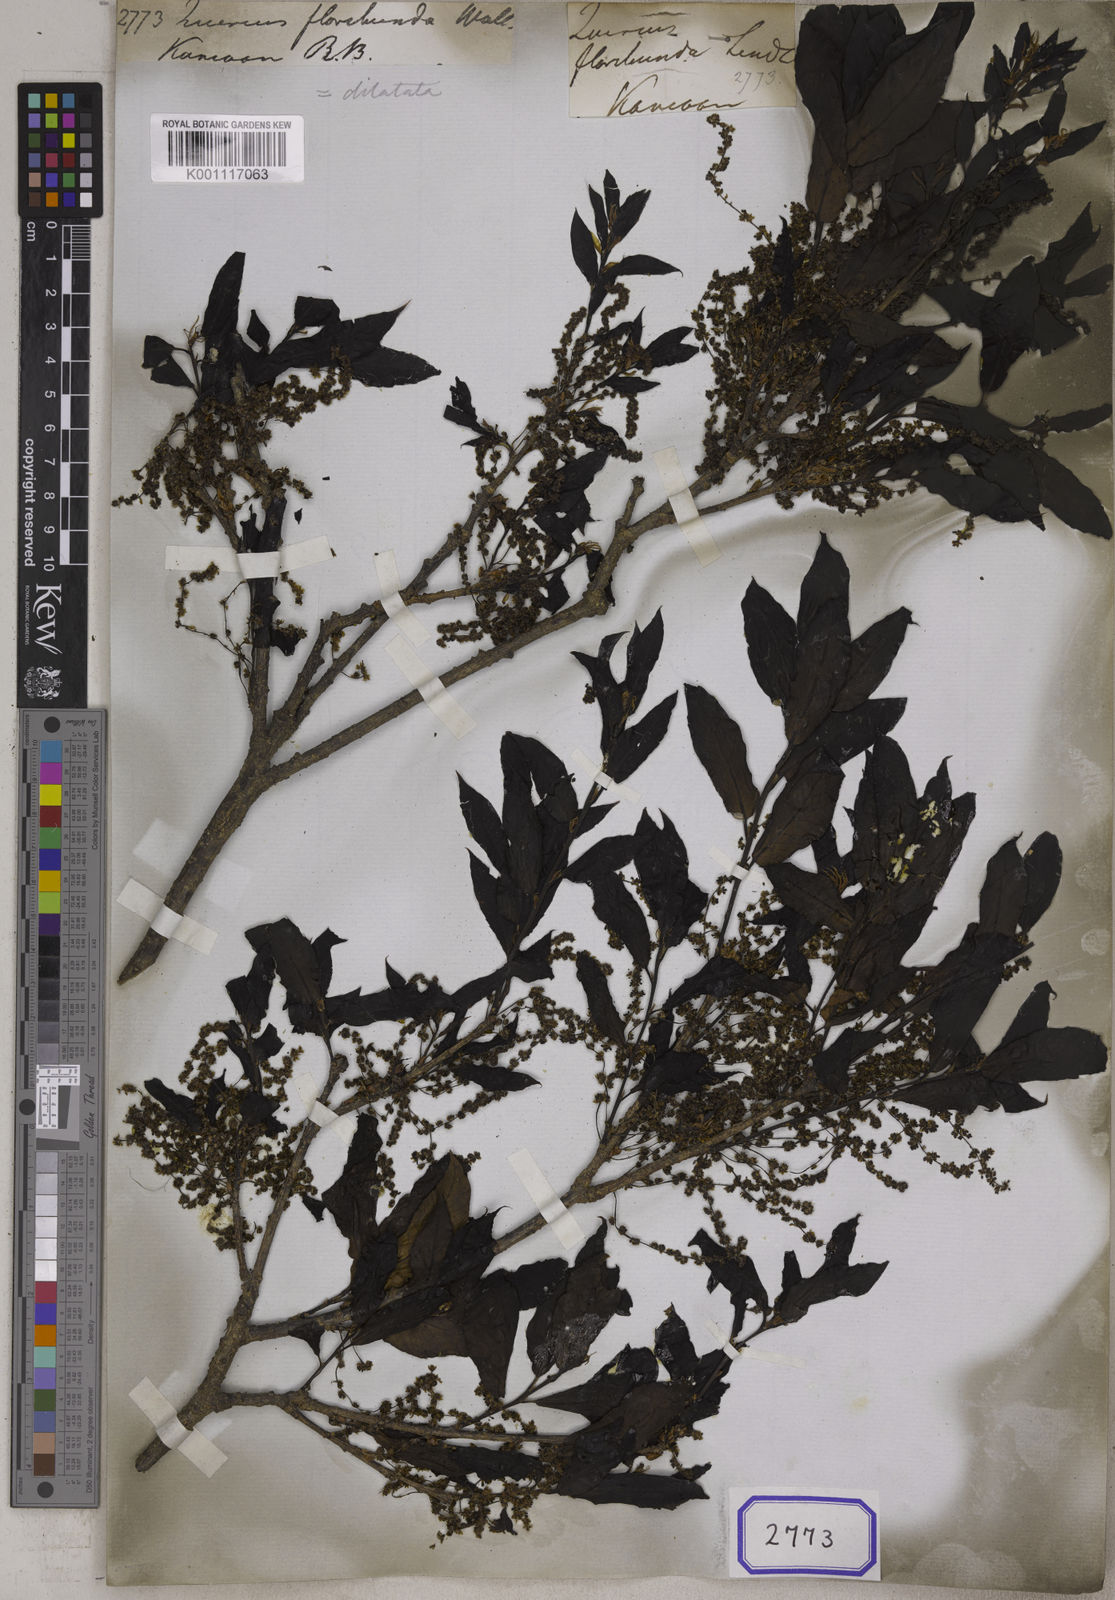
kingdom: Plantae
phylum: Tracheophyta
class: Magnoliopsida
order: Fagales
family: Fagaceae
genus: Quercus
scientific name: Quercus
